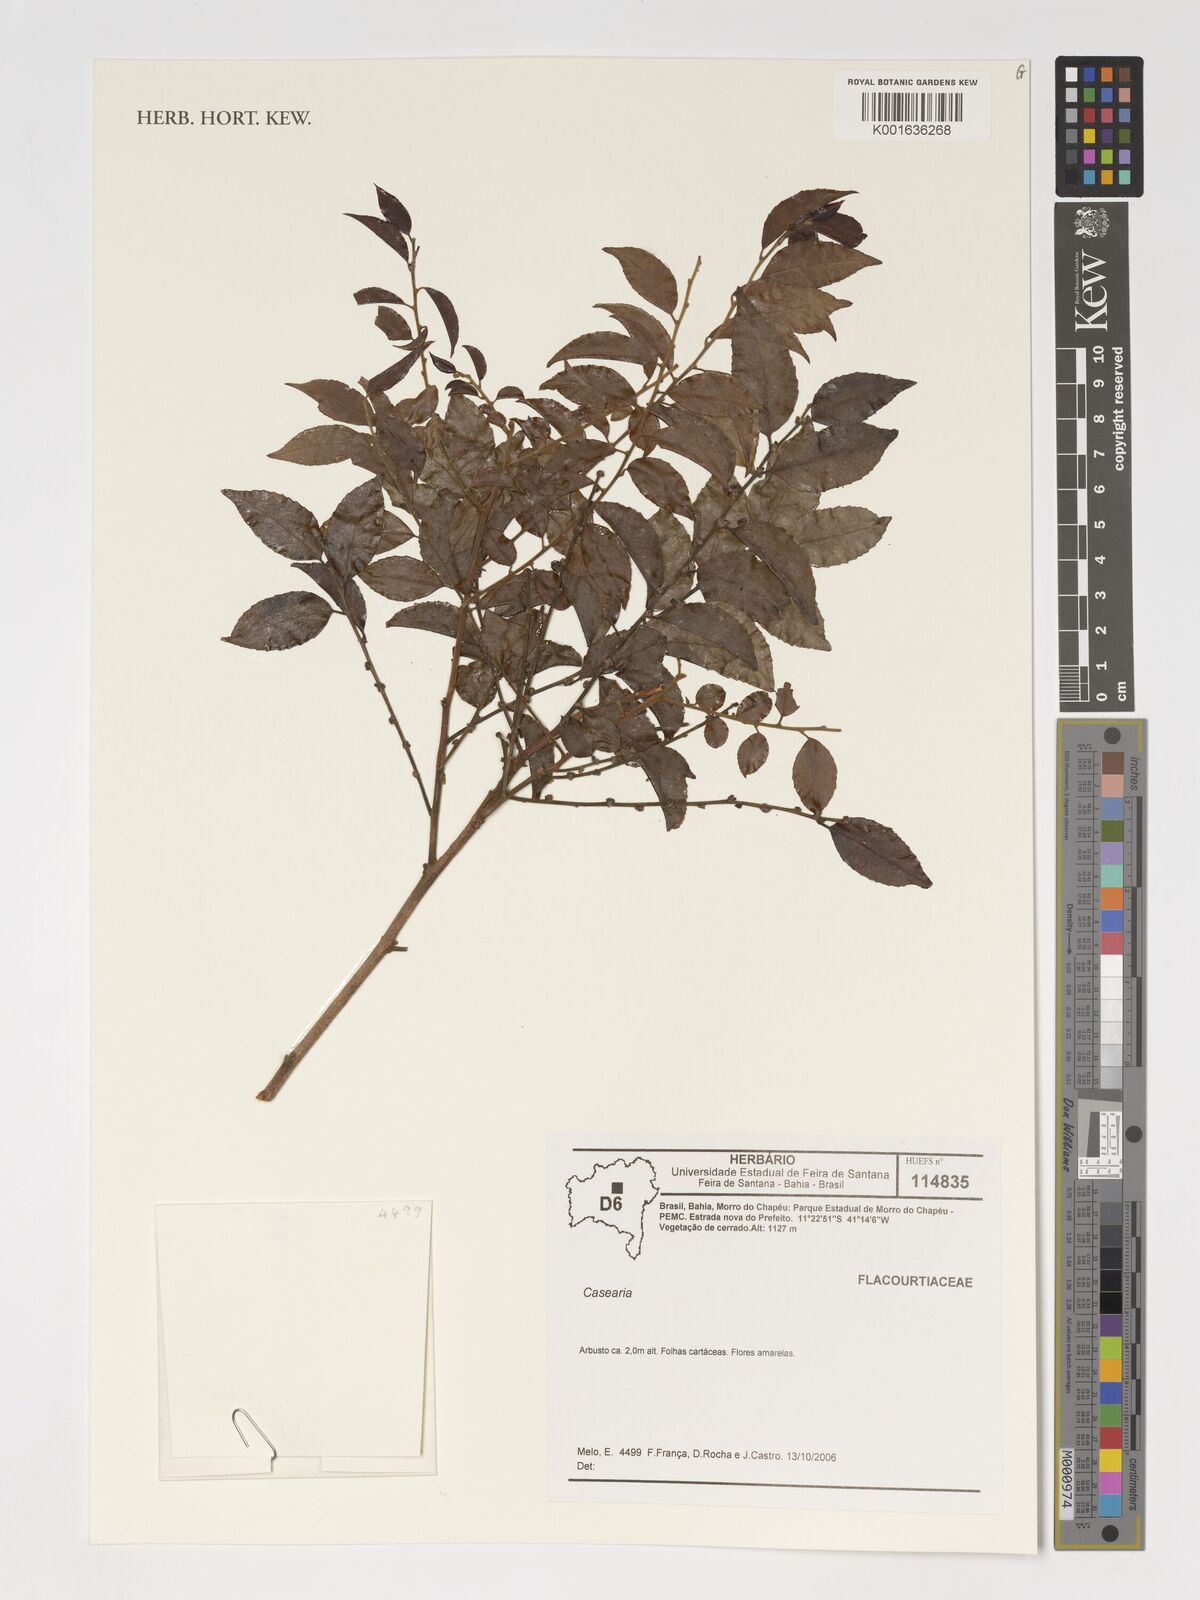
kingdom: Plantae
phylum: Tracheophyta
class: Magnoliopsida
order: Malpighiales
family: Salicaceae
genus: Casearia
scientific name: Casearia
